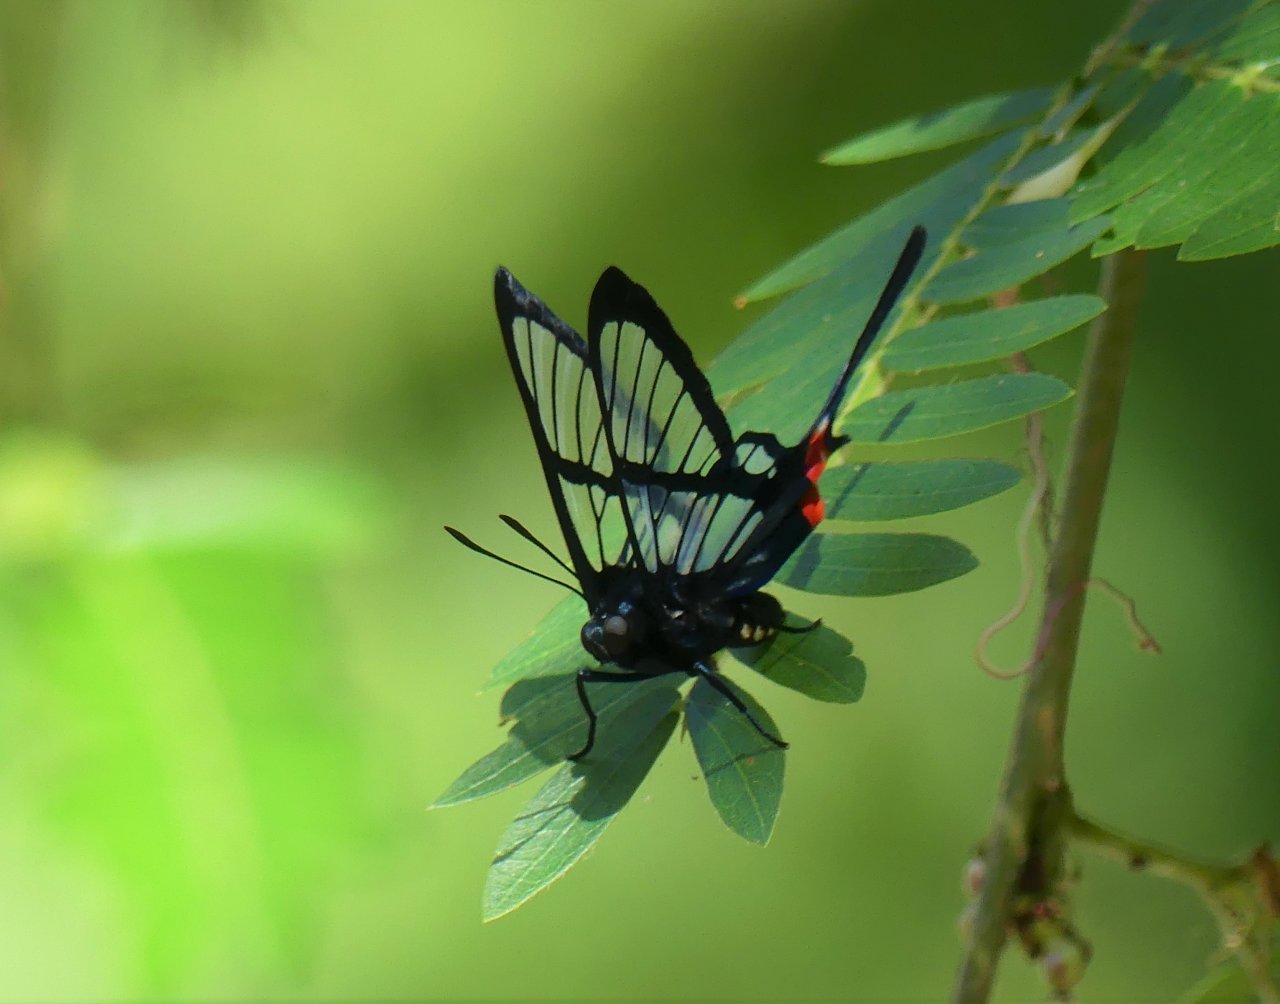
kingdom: Animalia
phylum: Arthropoda
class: Insecta
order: Lepidoptera
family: Riodinidae
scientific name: Riodinidae
